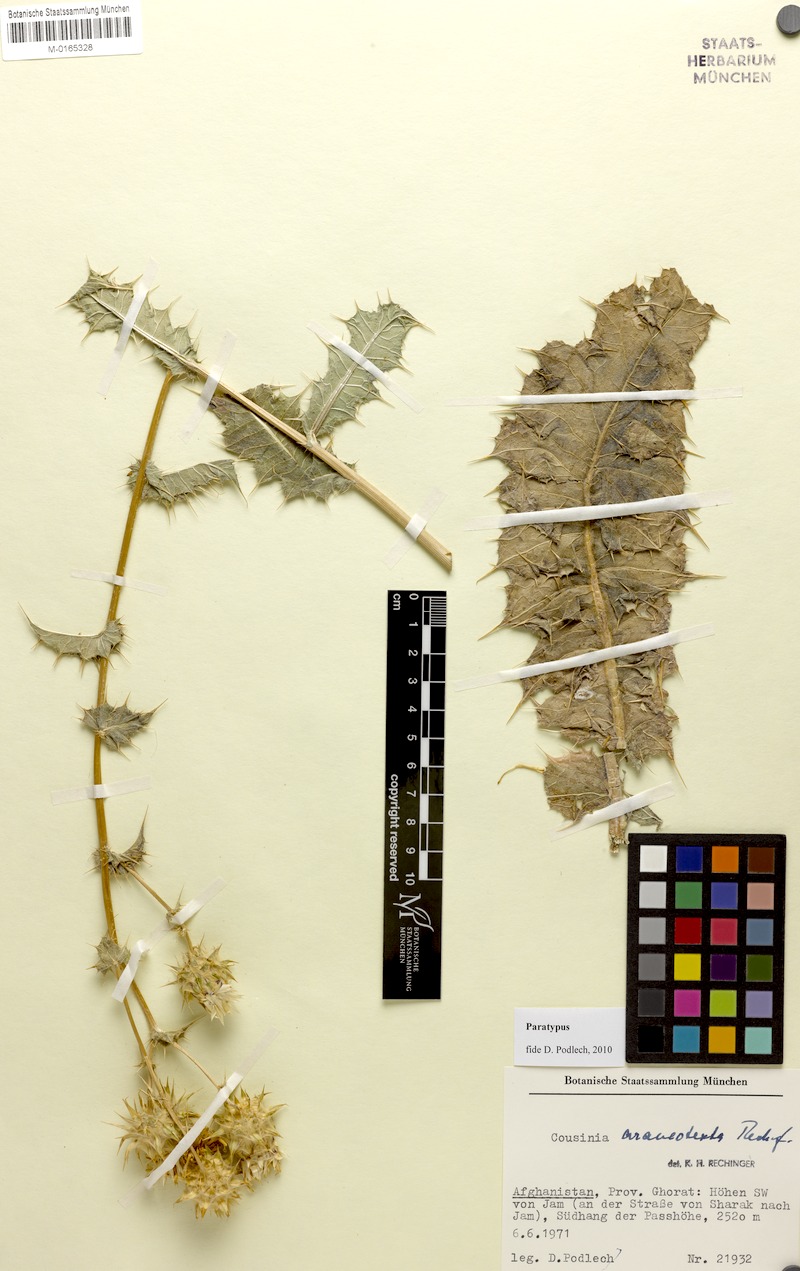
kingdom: Plantae
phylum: Tracheophyta
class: Magnoliopsida
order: Asterales
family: Asteraceae
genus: Cousinia
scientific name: Cousinia araneotexta
